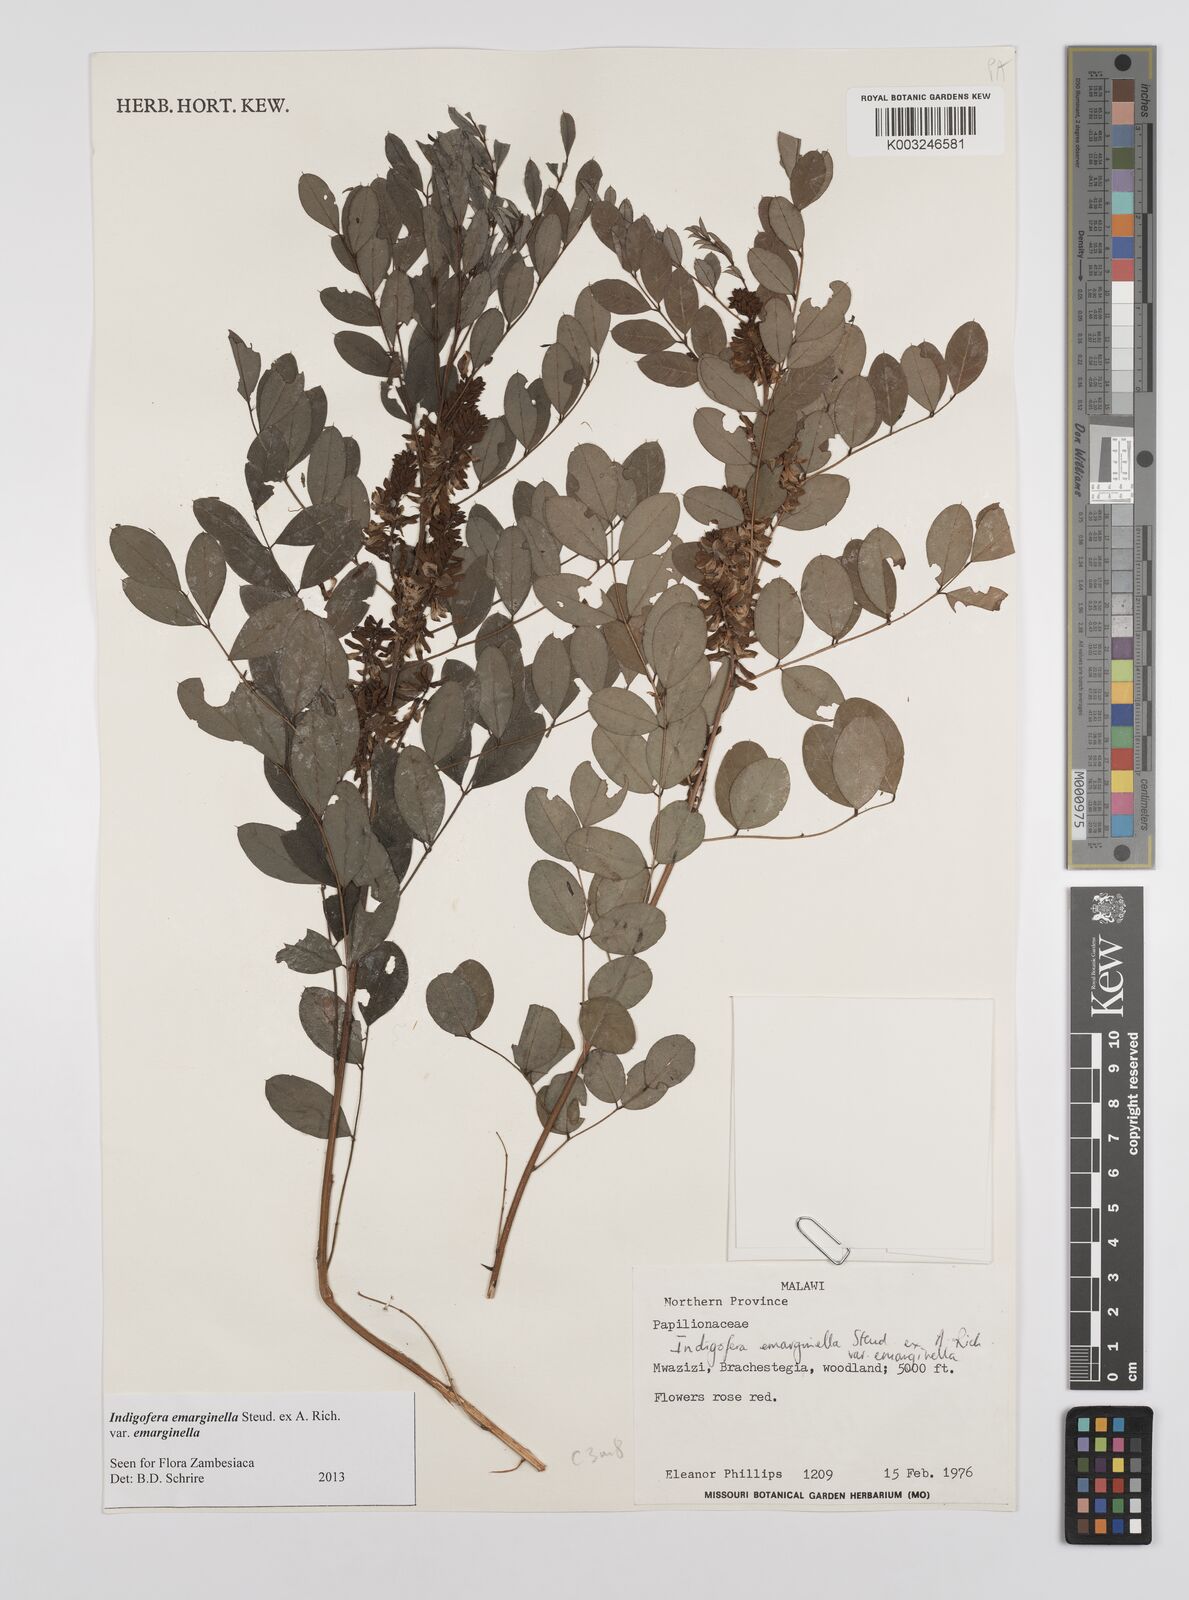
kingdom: Plantae
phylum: Tracheophyta
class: Magnoliopsida
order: Fabales
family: Fabaceae
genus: Indigofera
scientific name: Indigofera emarginella
